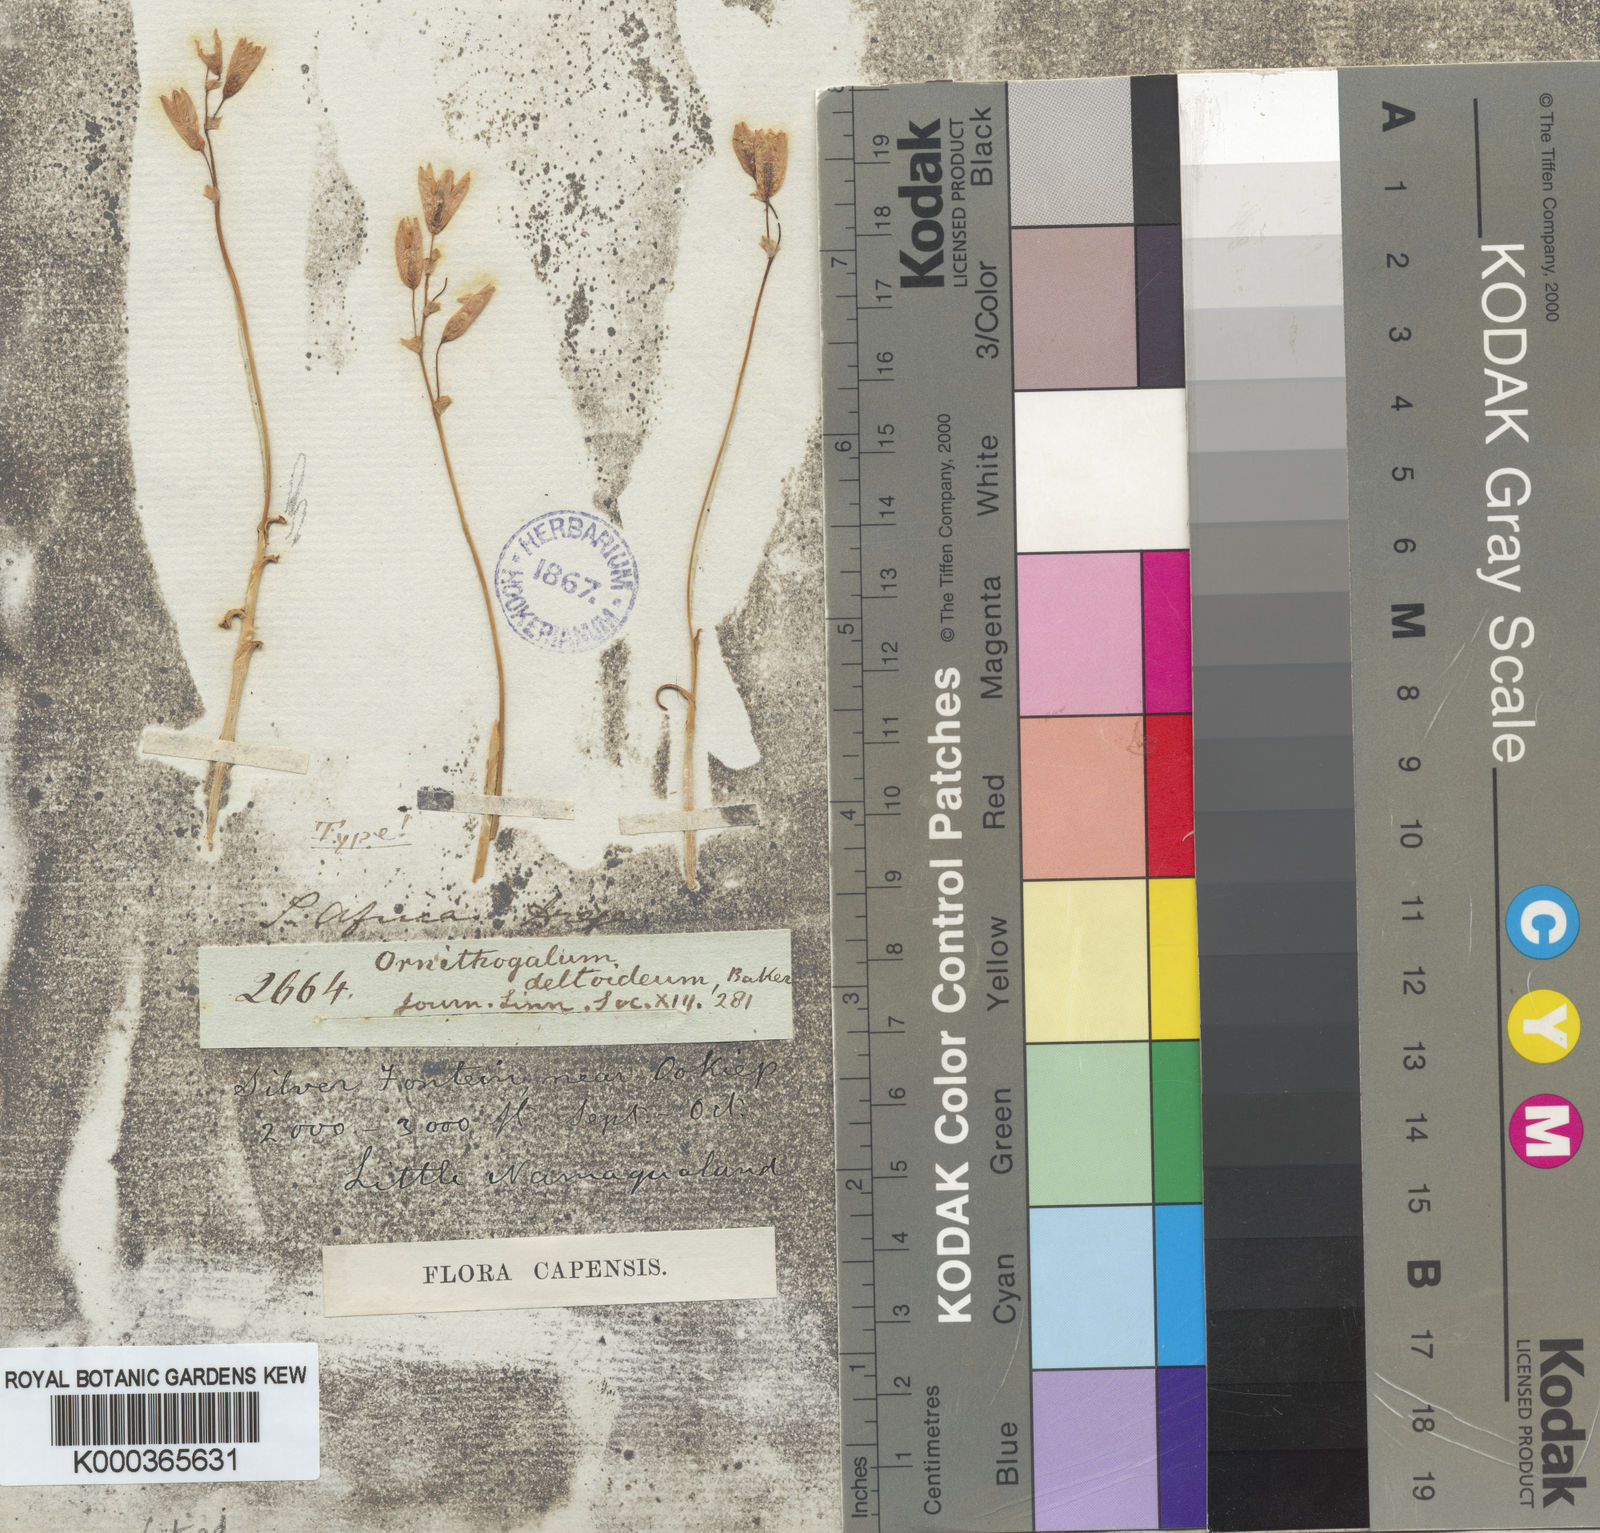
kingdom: Plantae
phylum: Tracheophyta
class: Liliopsida
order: Asparagales
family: Asparagaceae
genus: Ornithogalum
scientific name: Ornithogalum deltoideum
